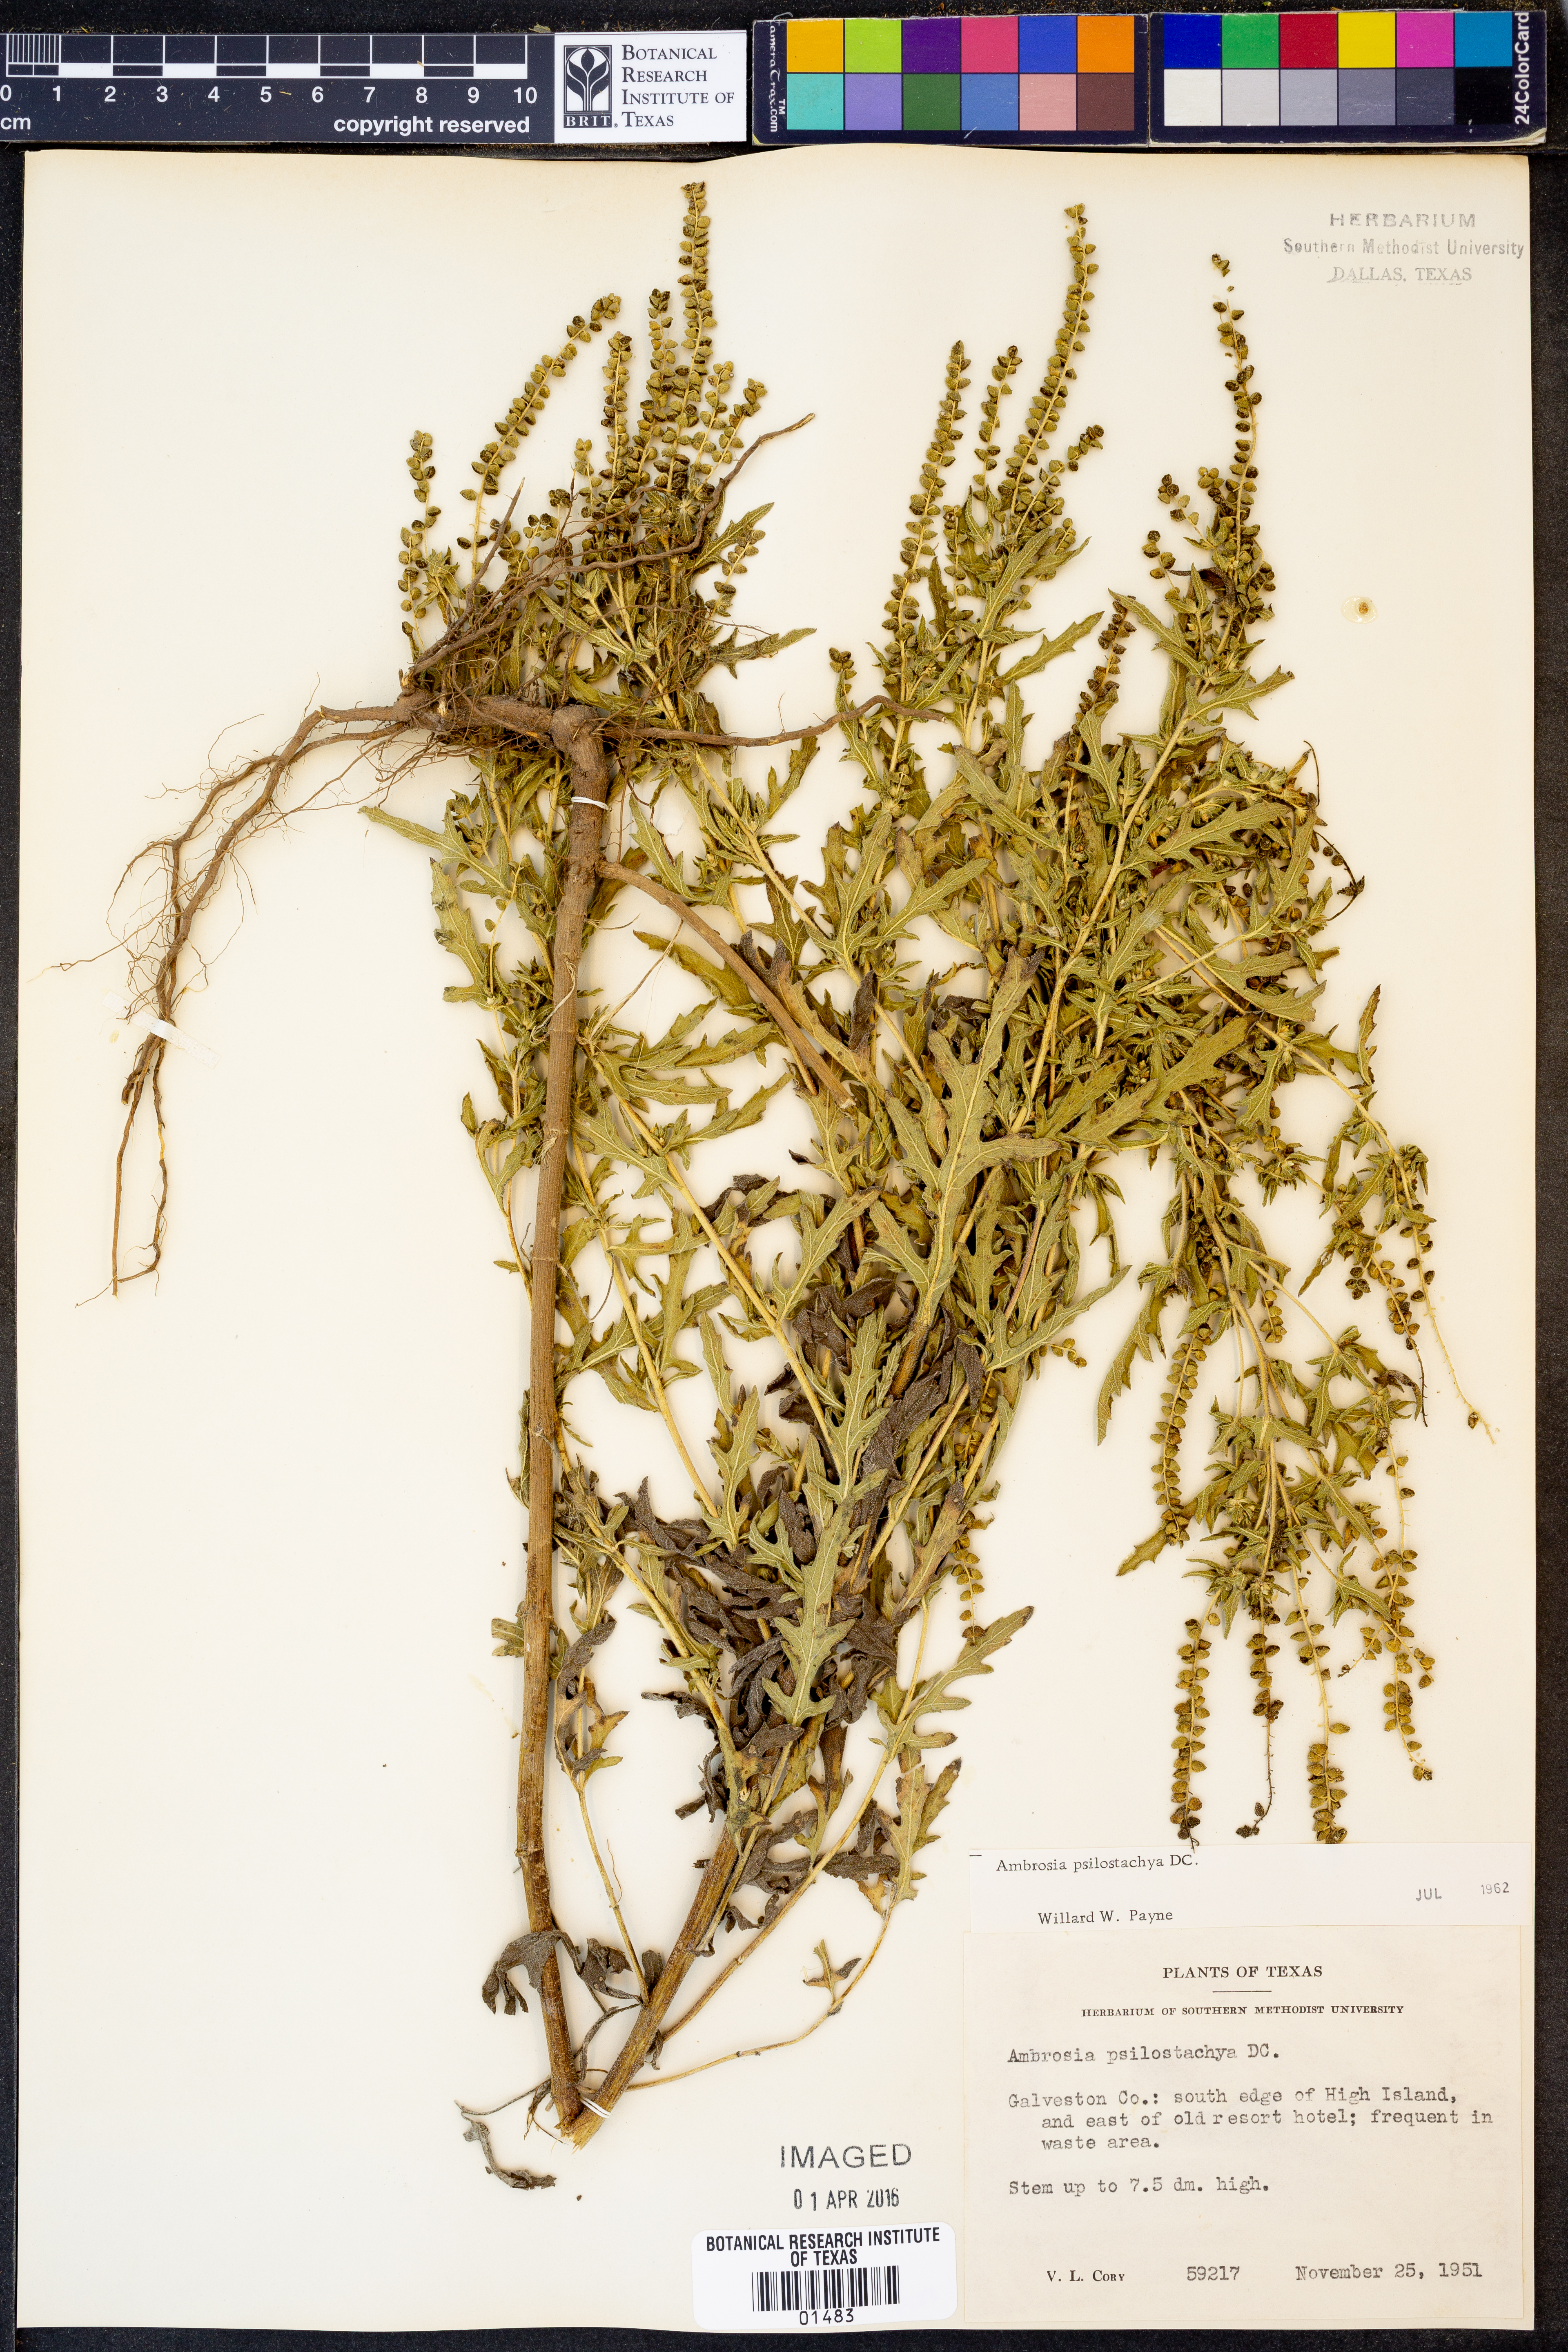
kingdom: Plantae
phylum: Tracheophyta
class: Magnoliopsida
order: Asterales
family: Asteraceae
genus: Ambrosia
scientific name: Ambrosia psilostachya
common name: Perennial ragweed
